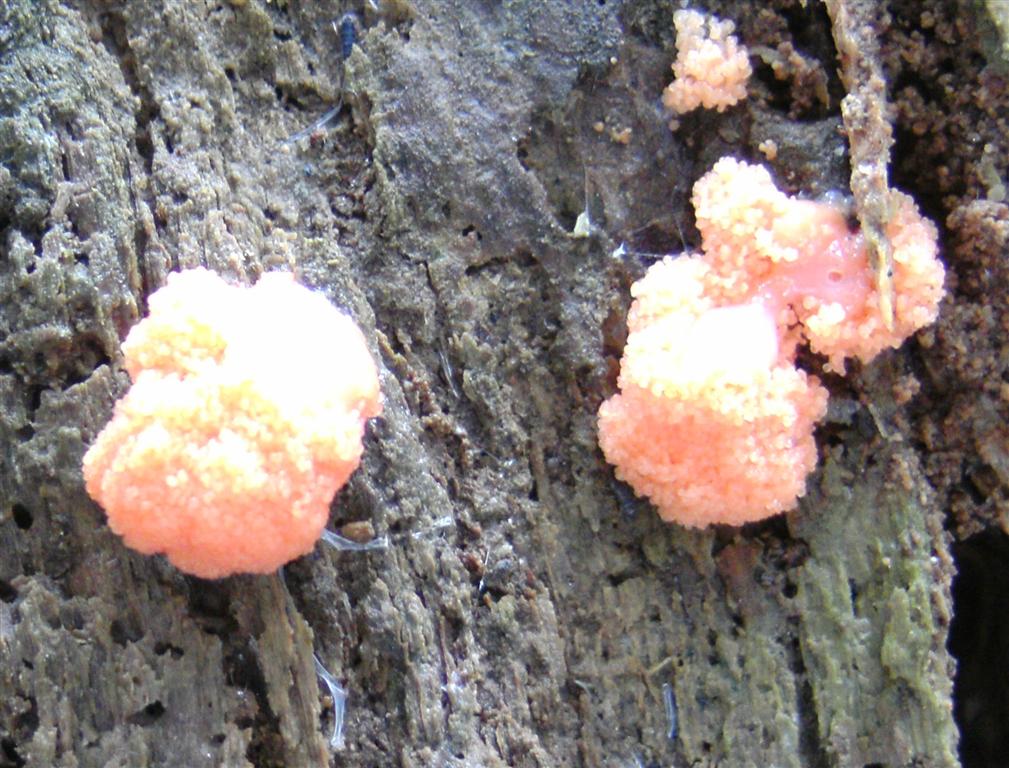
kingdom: Protozoa
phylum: Mycetozoa
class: Myxomycetes
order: Cribrariales
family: Tubiferaceae
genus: Tubifera
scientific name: Tubifera ferruginosa
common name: kanel-støvrør
